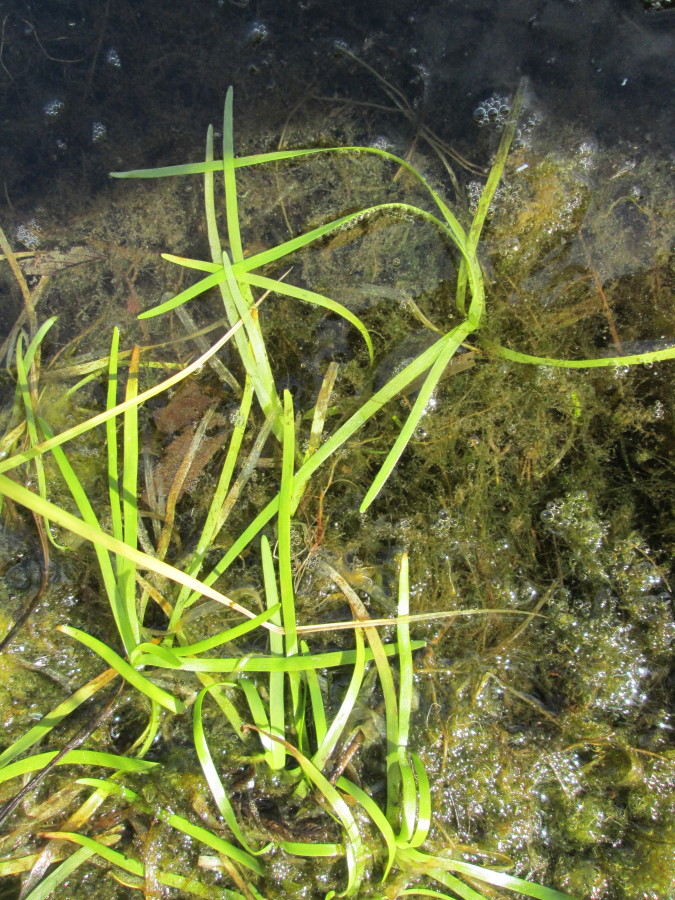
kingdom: Plantae
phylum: Tracheophyta
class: Liliopsida
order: Poales
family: Typhaceae
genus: Sparganium
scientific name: Sparganium hyperboreum
